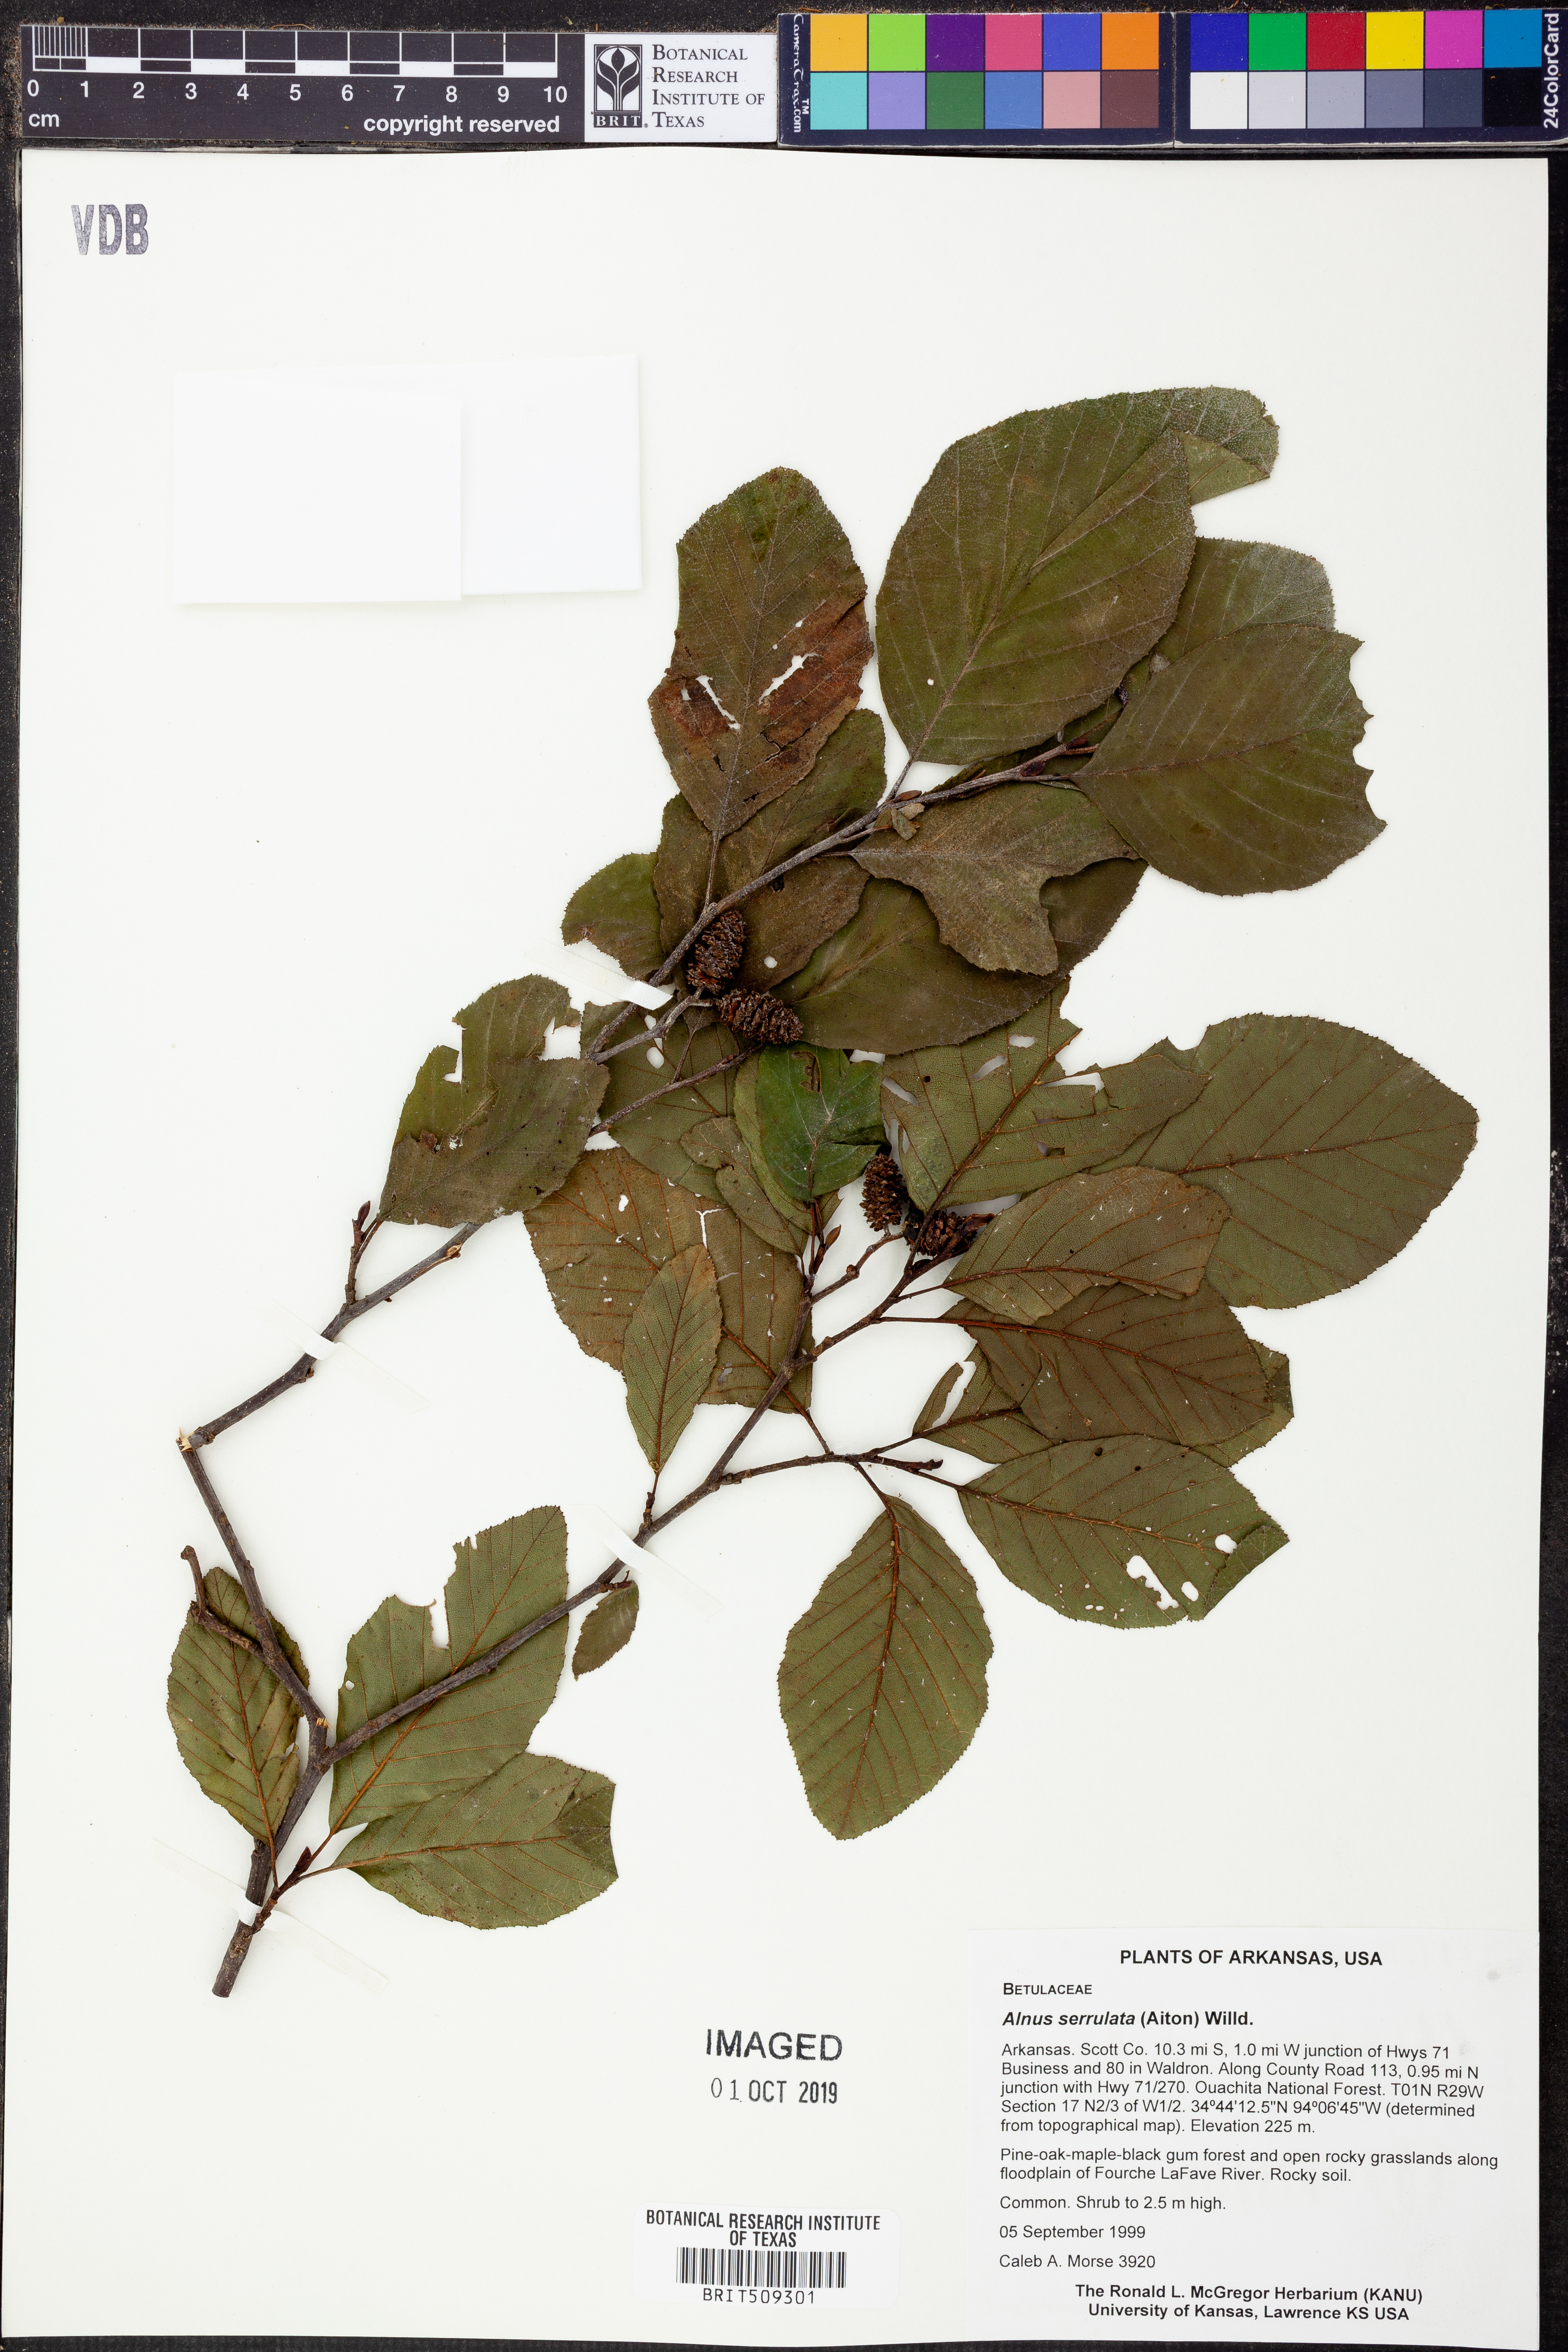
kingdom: Plantae
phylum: Tracheophyta
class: Magnoliopsida
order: Fagales
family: Betulaceae
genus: Alnus
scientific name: Alnus serrulata
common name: Hazel alder
